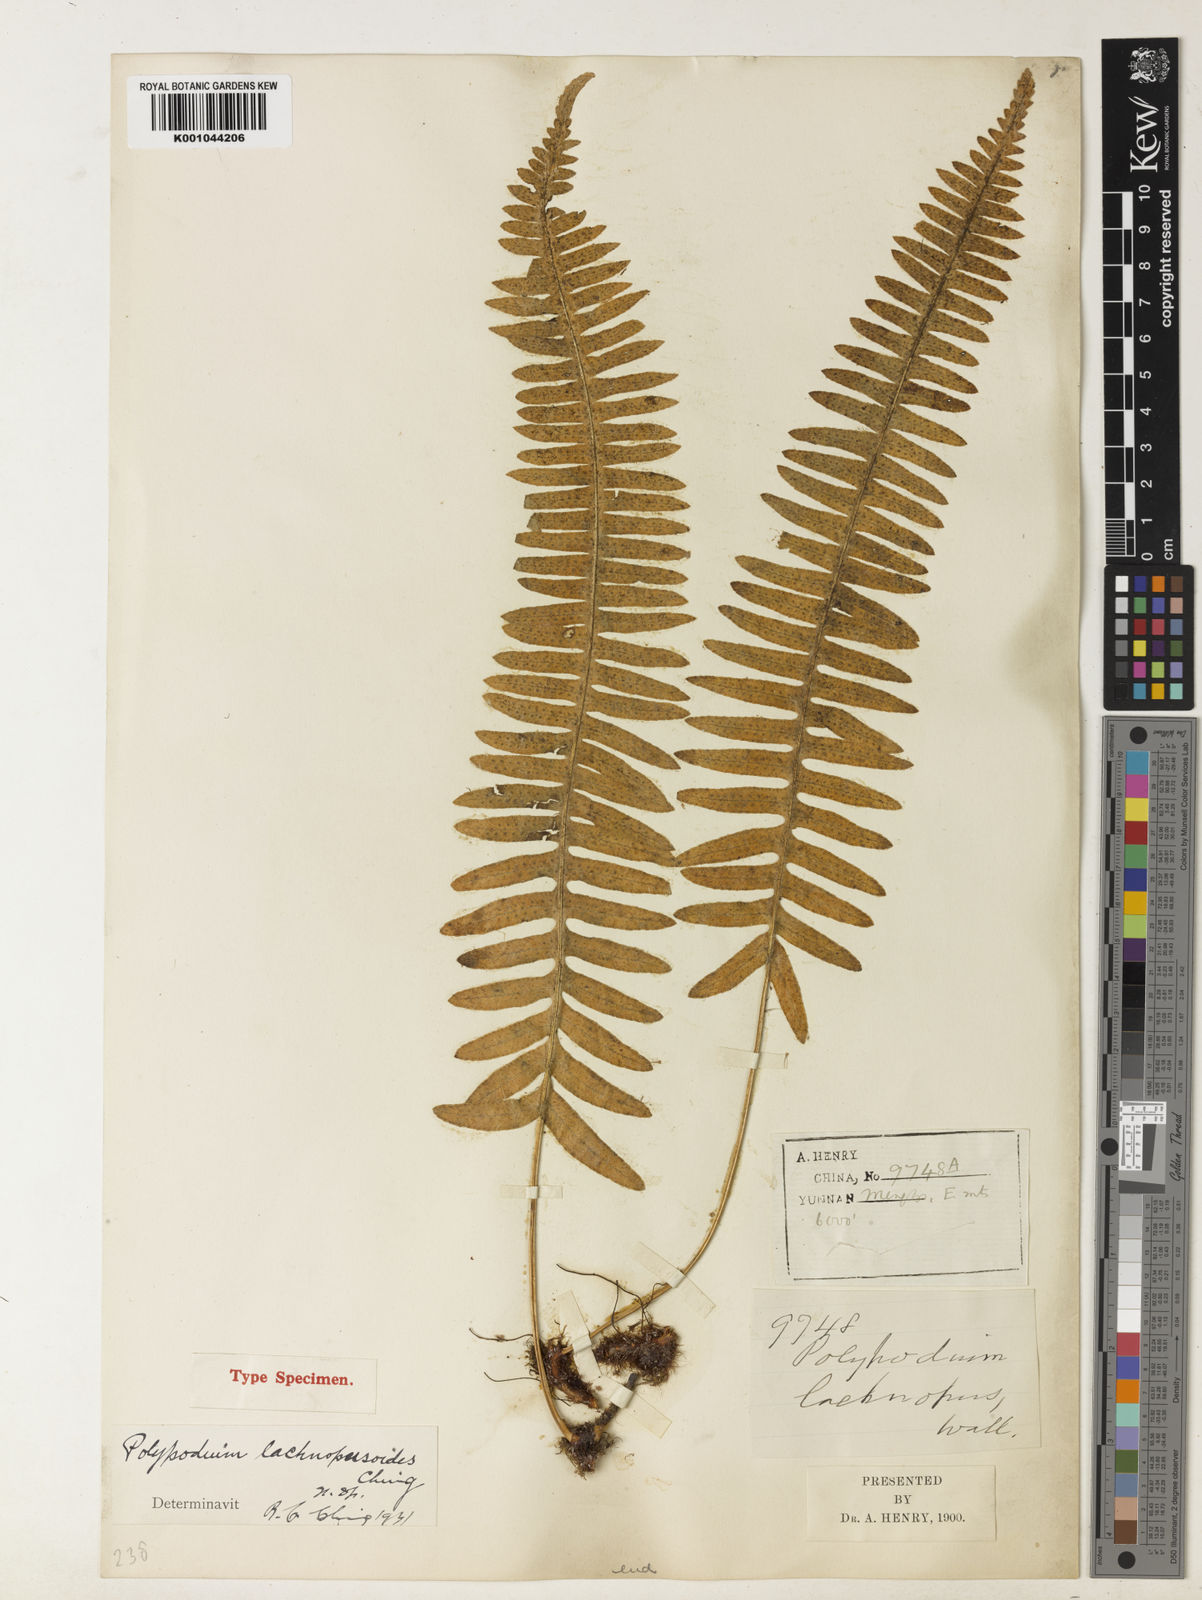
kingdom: Plantae
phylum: Tracheophyta
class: Polypodiopsida
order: Polypodiales
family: Polypodiaceae
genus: Polypodium
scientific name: Polypodium
